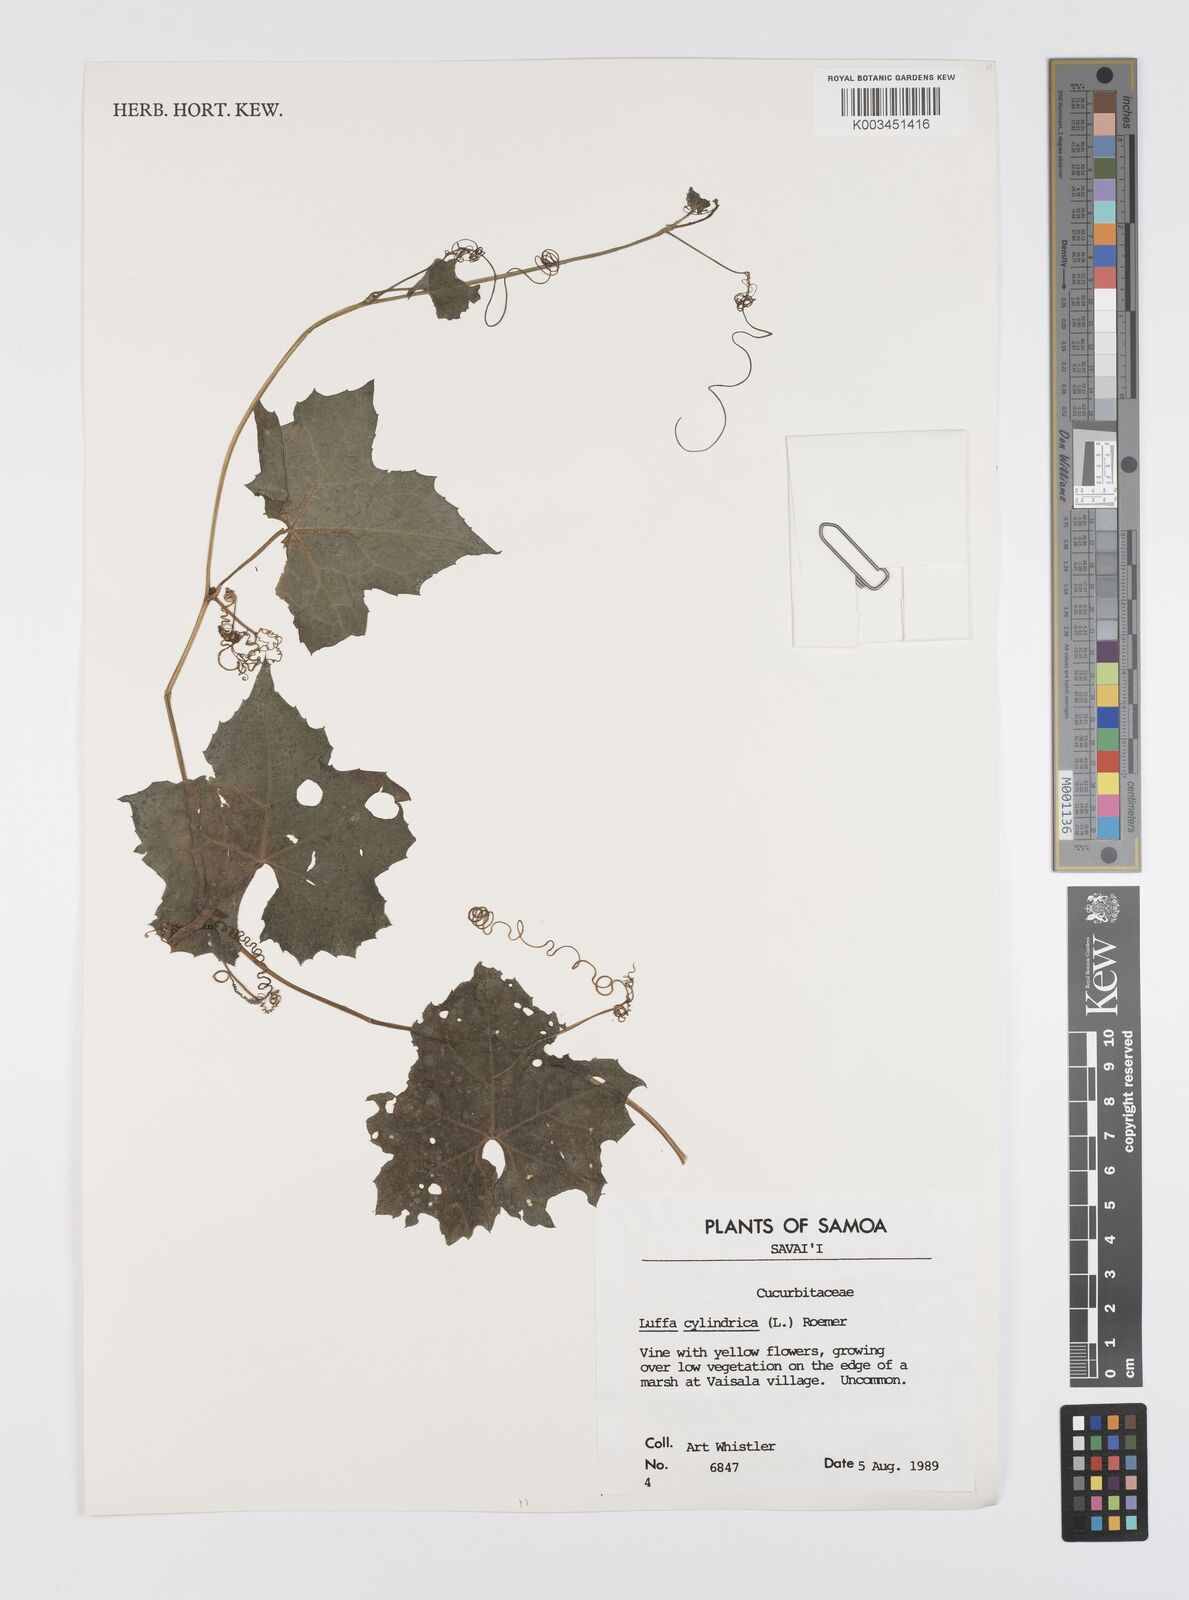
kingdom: Plantae
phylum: Tracheophyta
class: Magnoliopsida
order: Cucurbitales
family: Cucurbitaceae
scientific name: Cucurbitaceae
